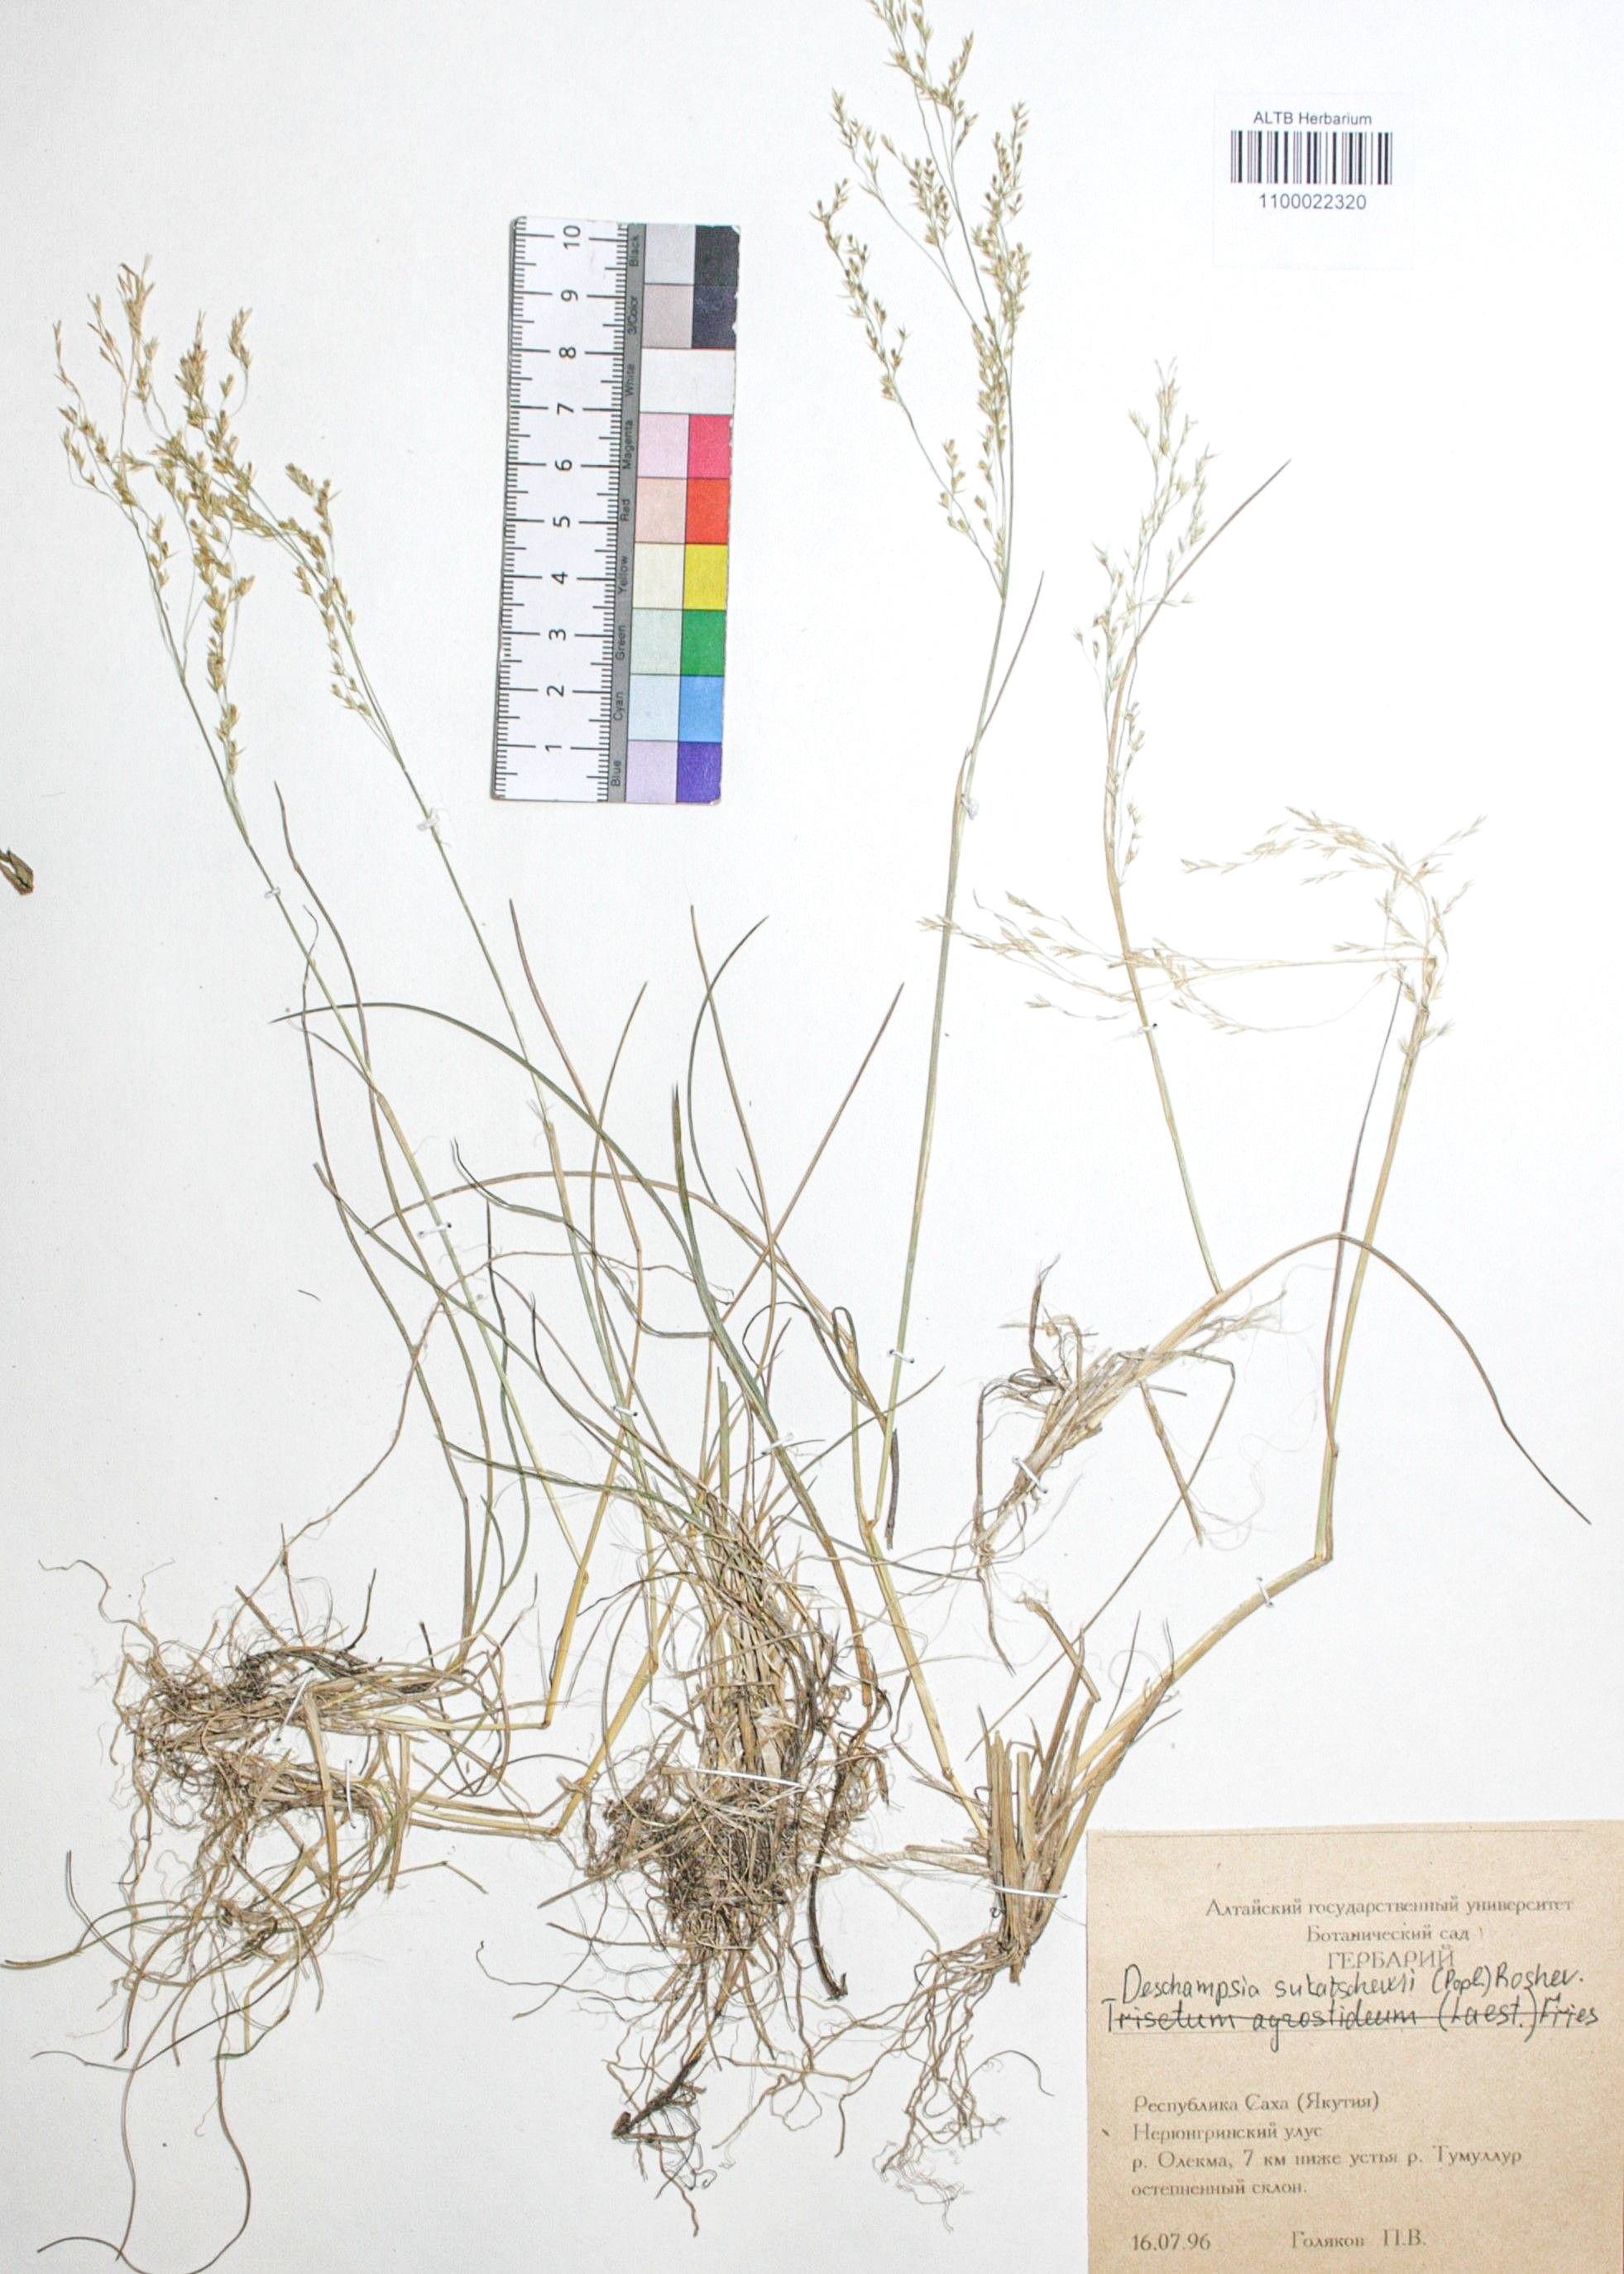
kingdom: Plantae
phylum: Tracheophyta
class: Liliopsida
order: Poales
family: Poaceae
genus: Deschampsia
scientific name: Deschampsia cespitosa
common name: Tufted hair-grass
